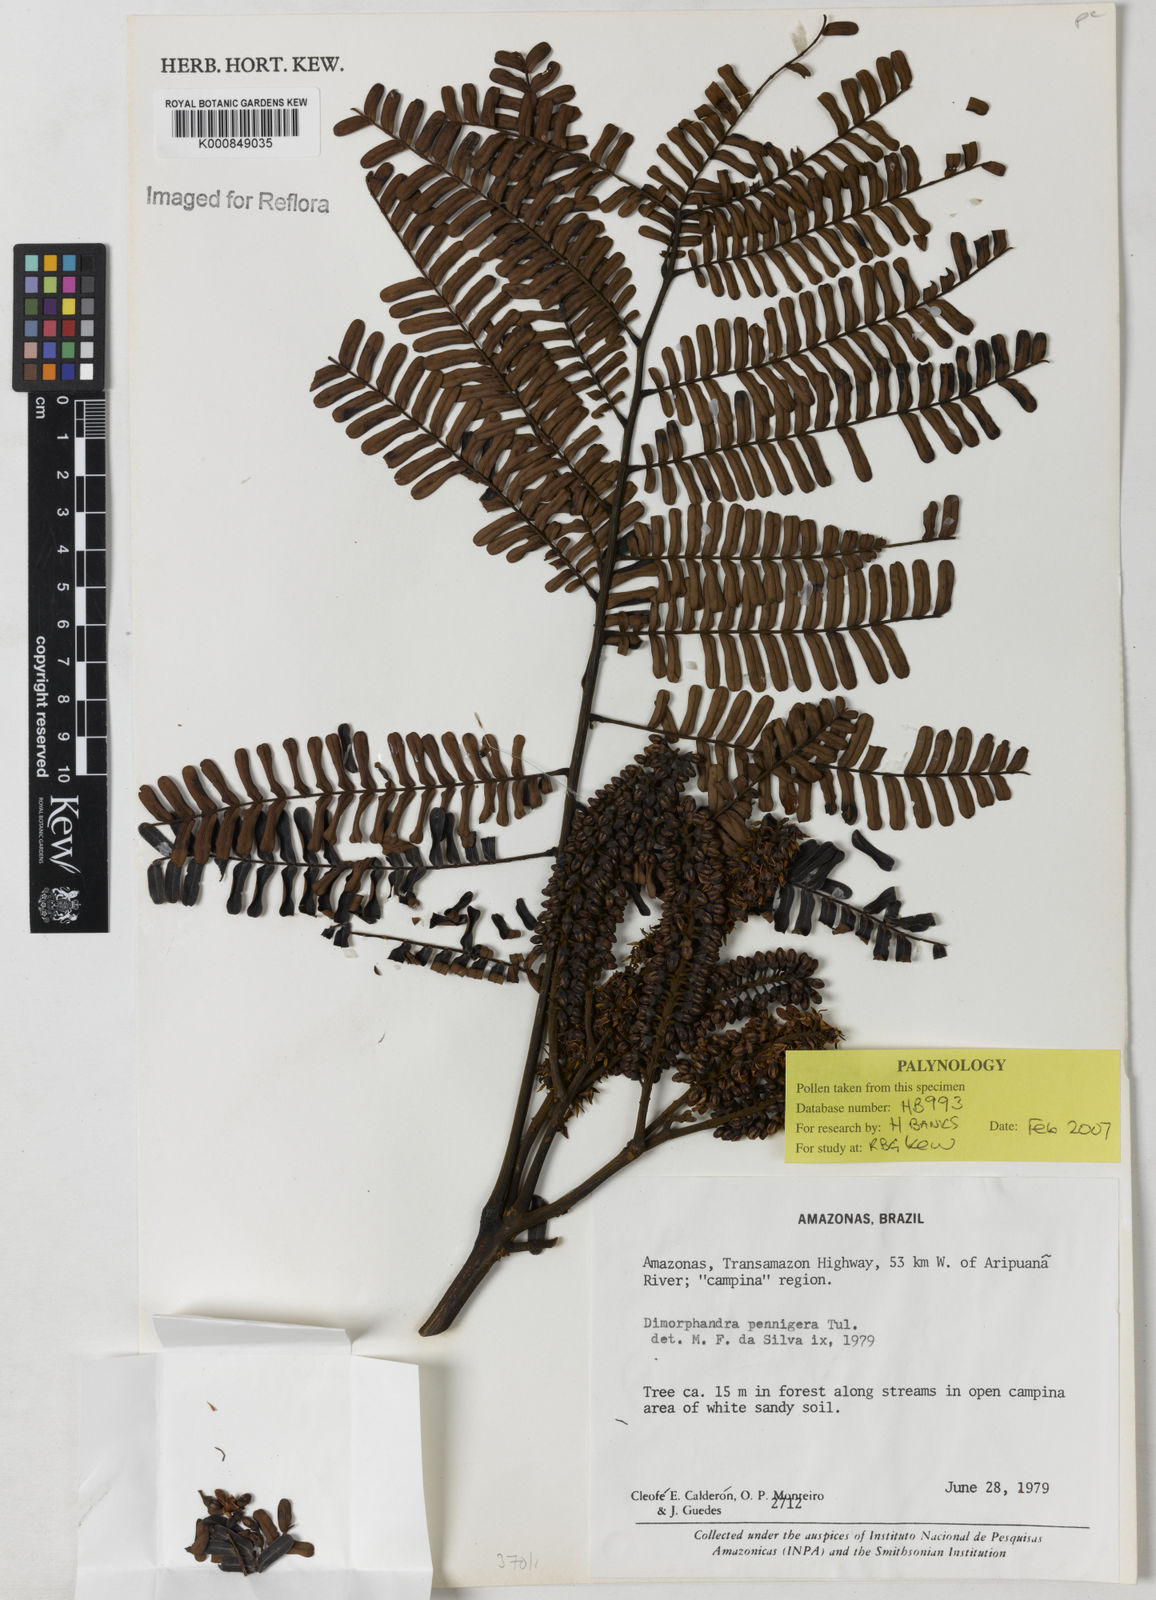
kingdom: Plantae
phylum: Tracheophyta
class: Magnoliopsida
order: Fabales
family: Fabaceae
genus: Dimorphandra
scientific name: Dimorphandra pennigera
